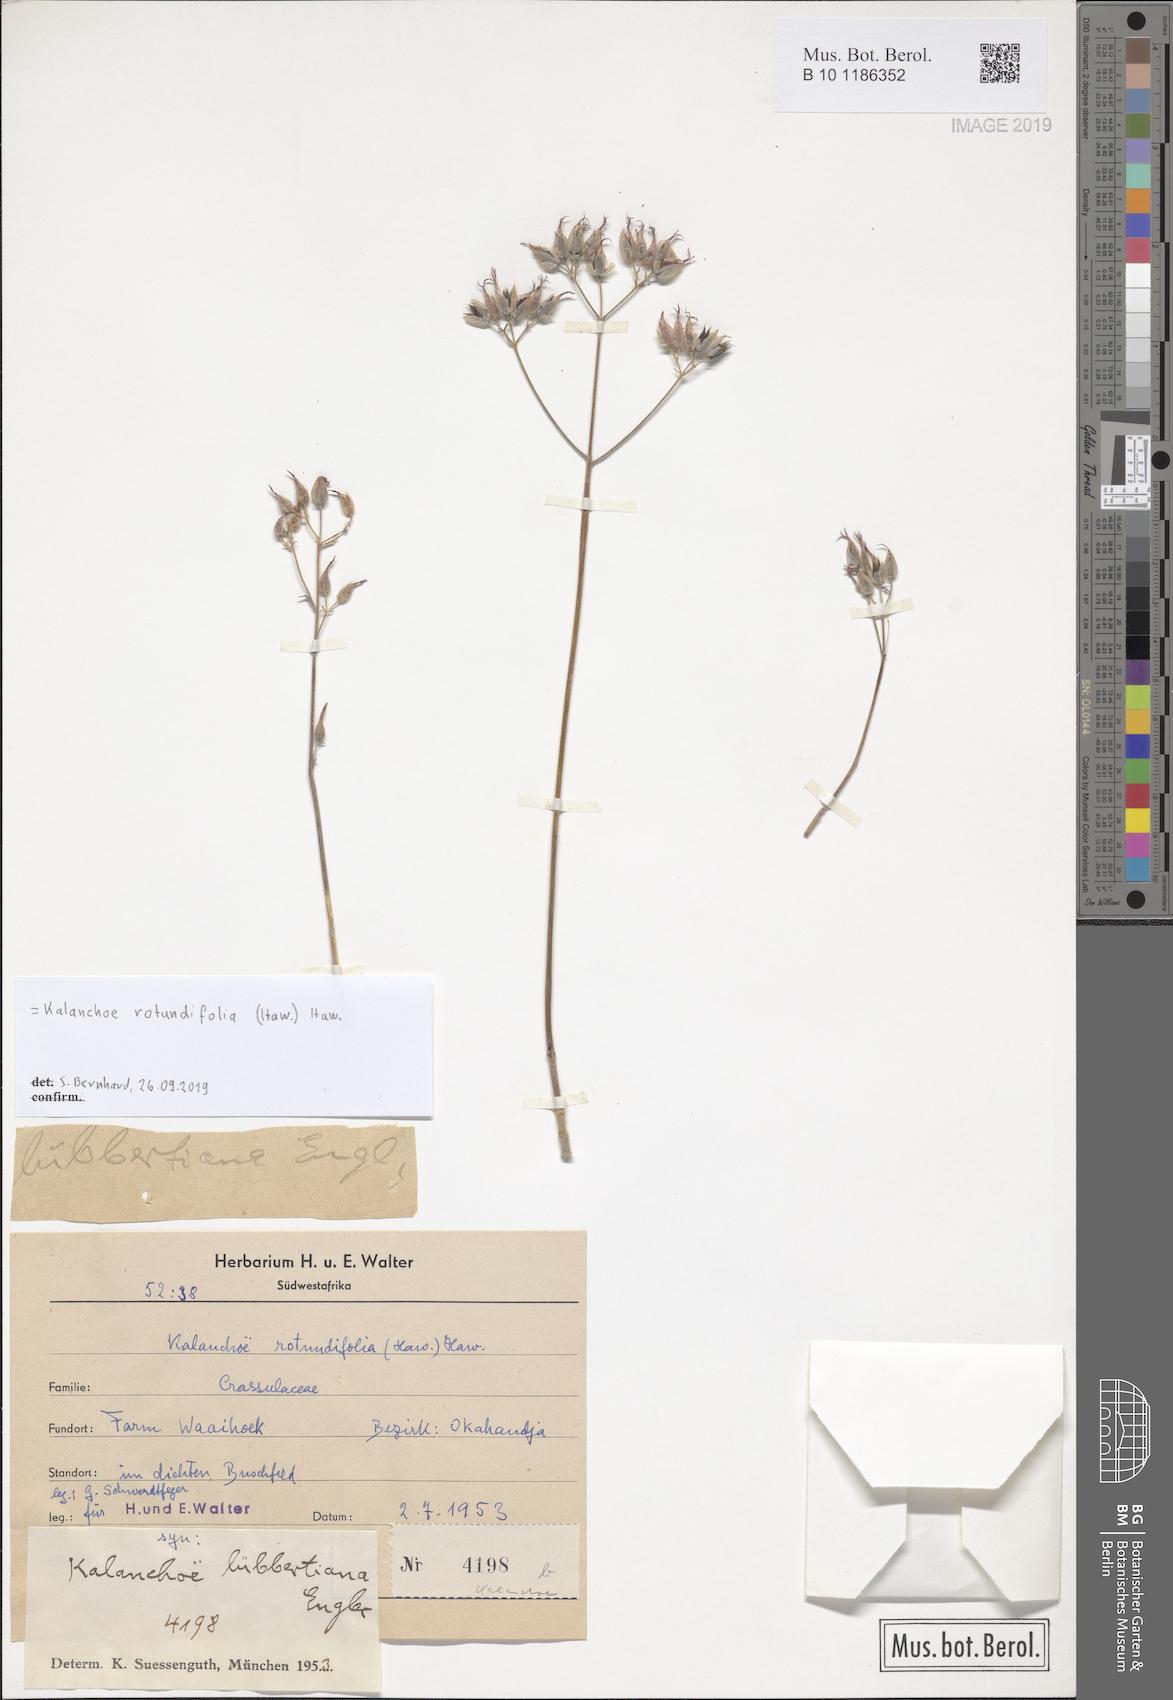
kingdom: Plantae
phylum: Tracheophyta
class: Magnoliopsida
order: Saxifragales
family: Crassulaceae
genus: Kalanchoe
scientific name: Kalanchoe rotundifolia
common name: Common kalanchoe
